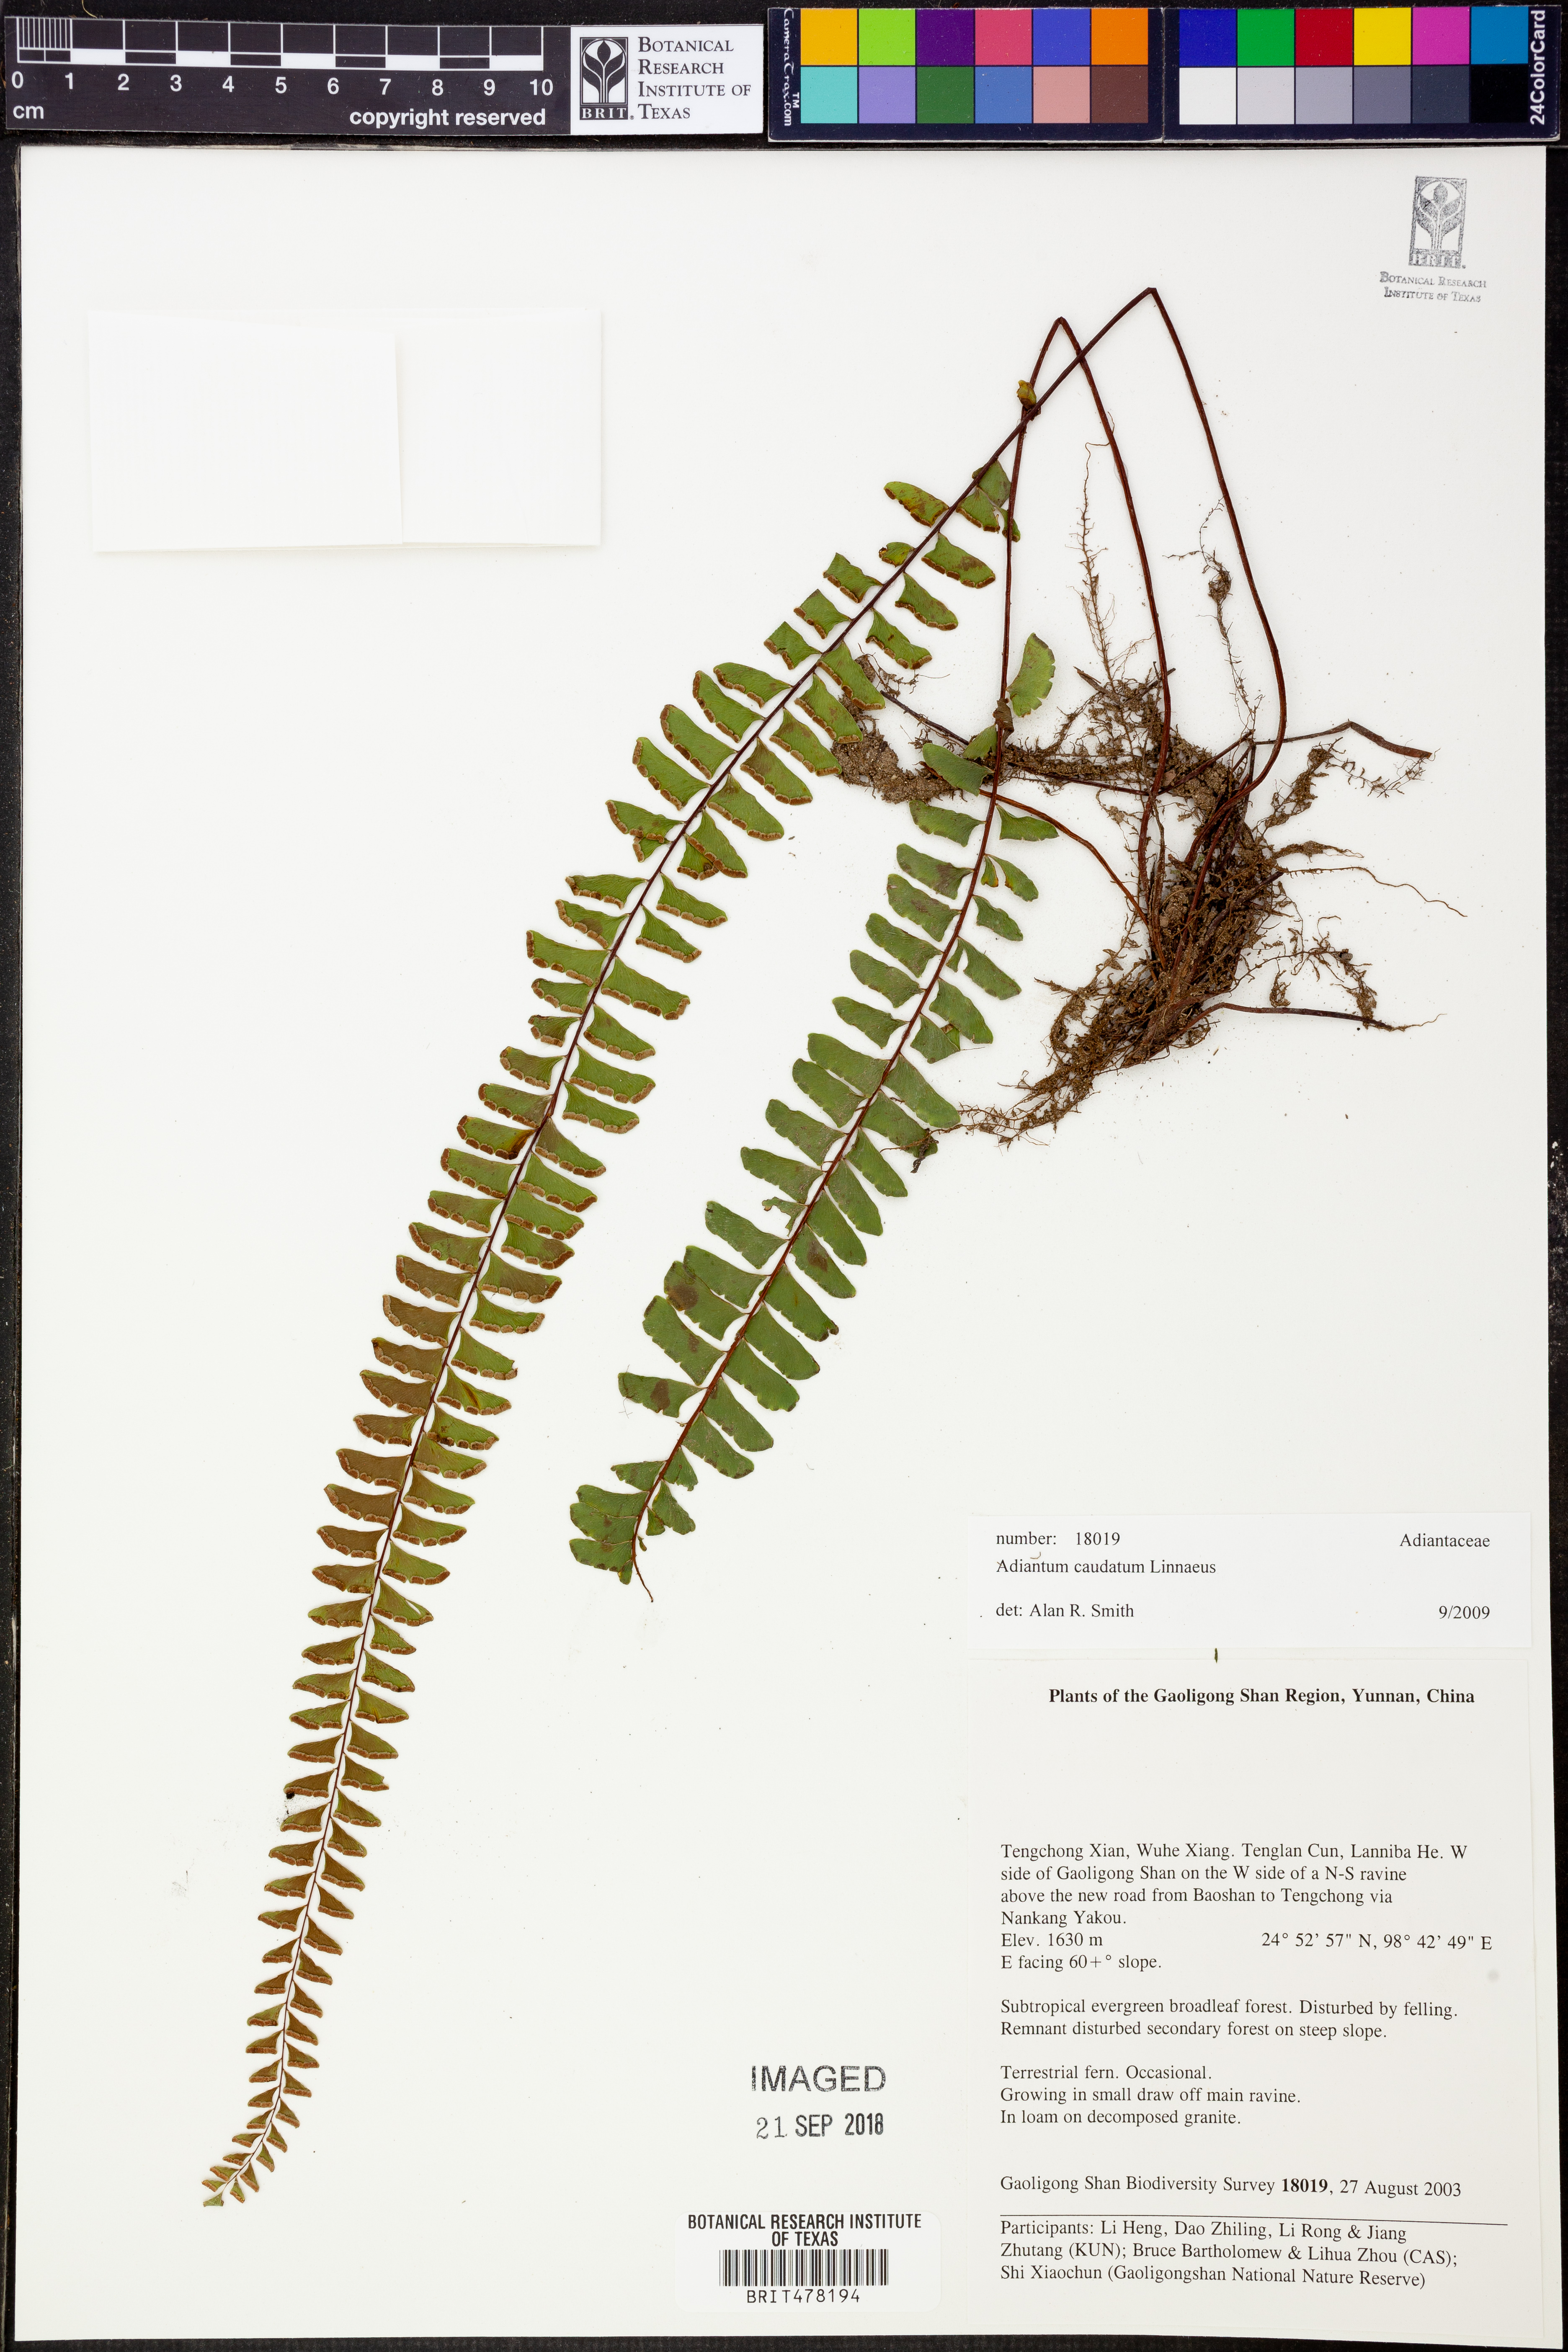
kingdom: Plantae
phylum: Tracheophyta
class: Polypodiopsida
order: Polypodiales
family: Pteridaceae
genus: Adiantum
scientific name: Adiantum caudatum
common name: Tailed maidenhair
